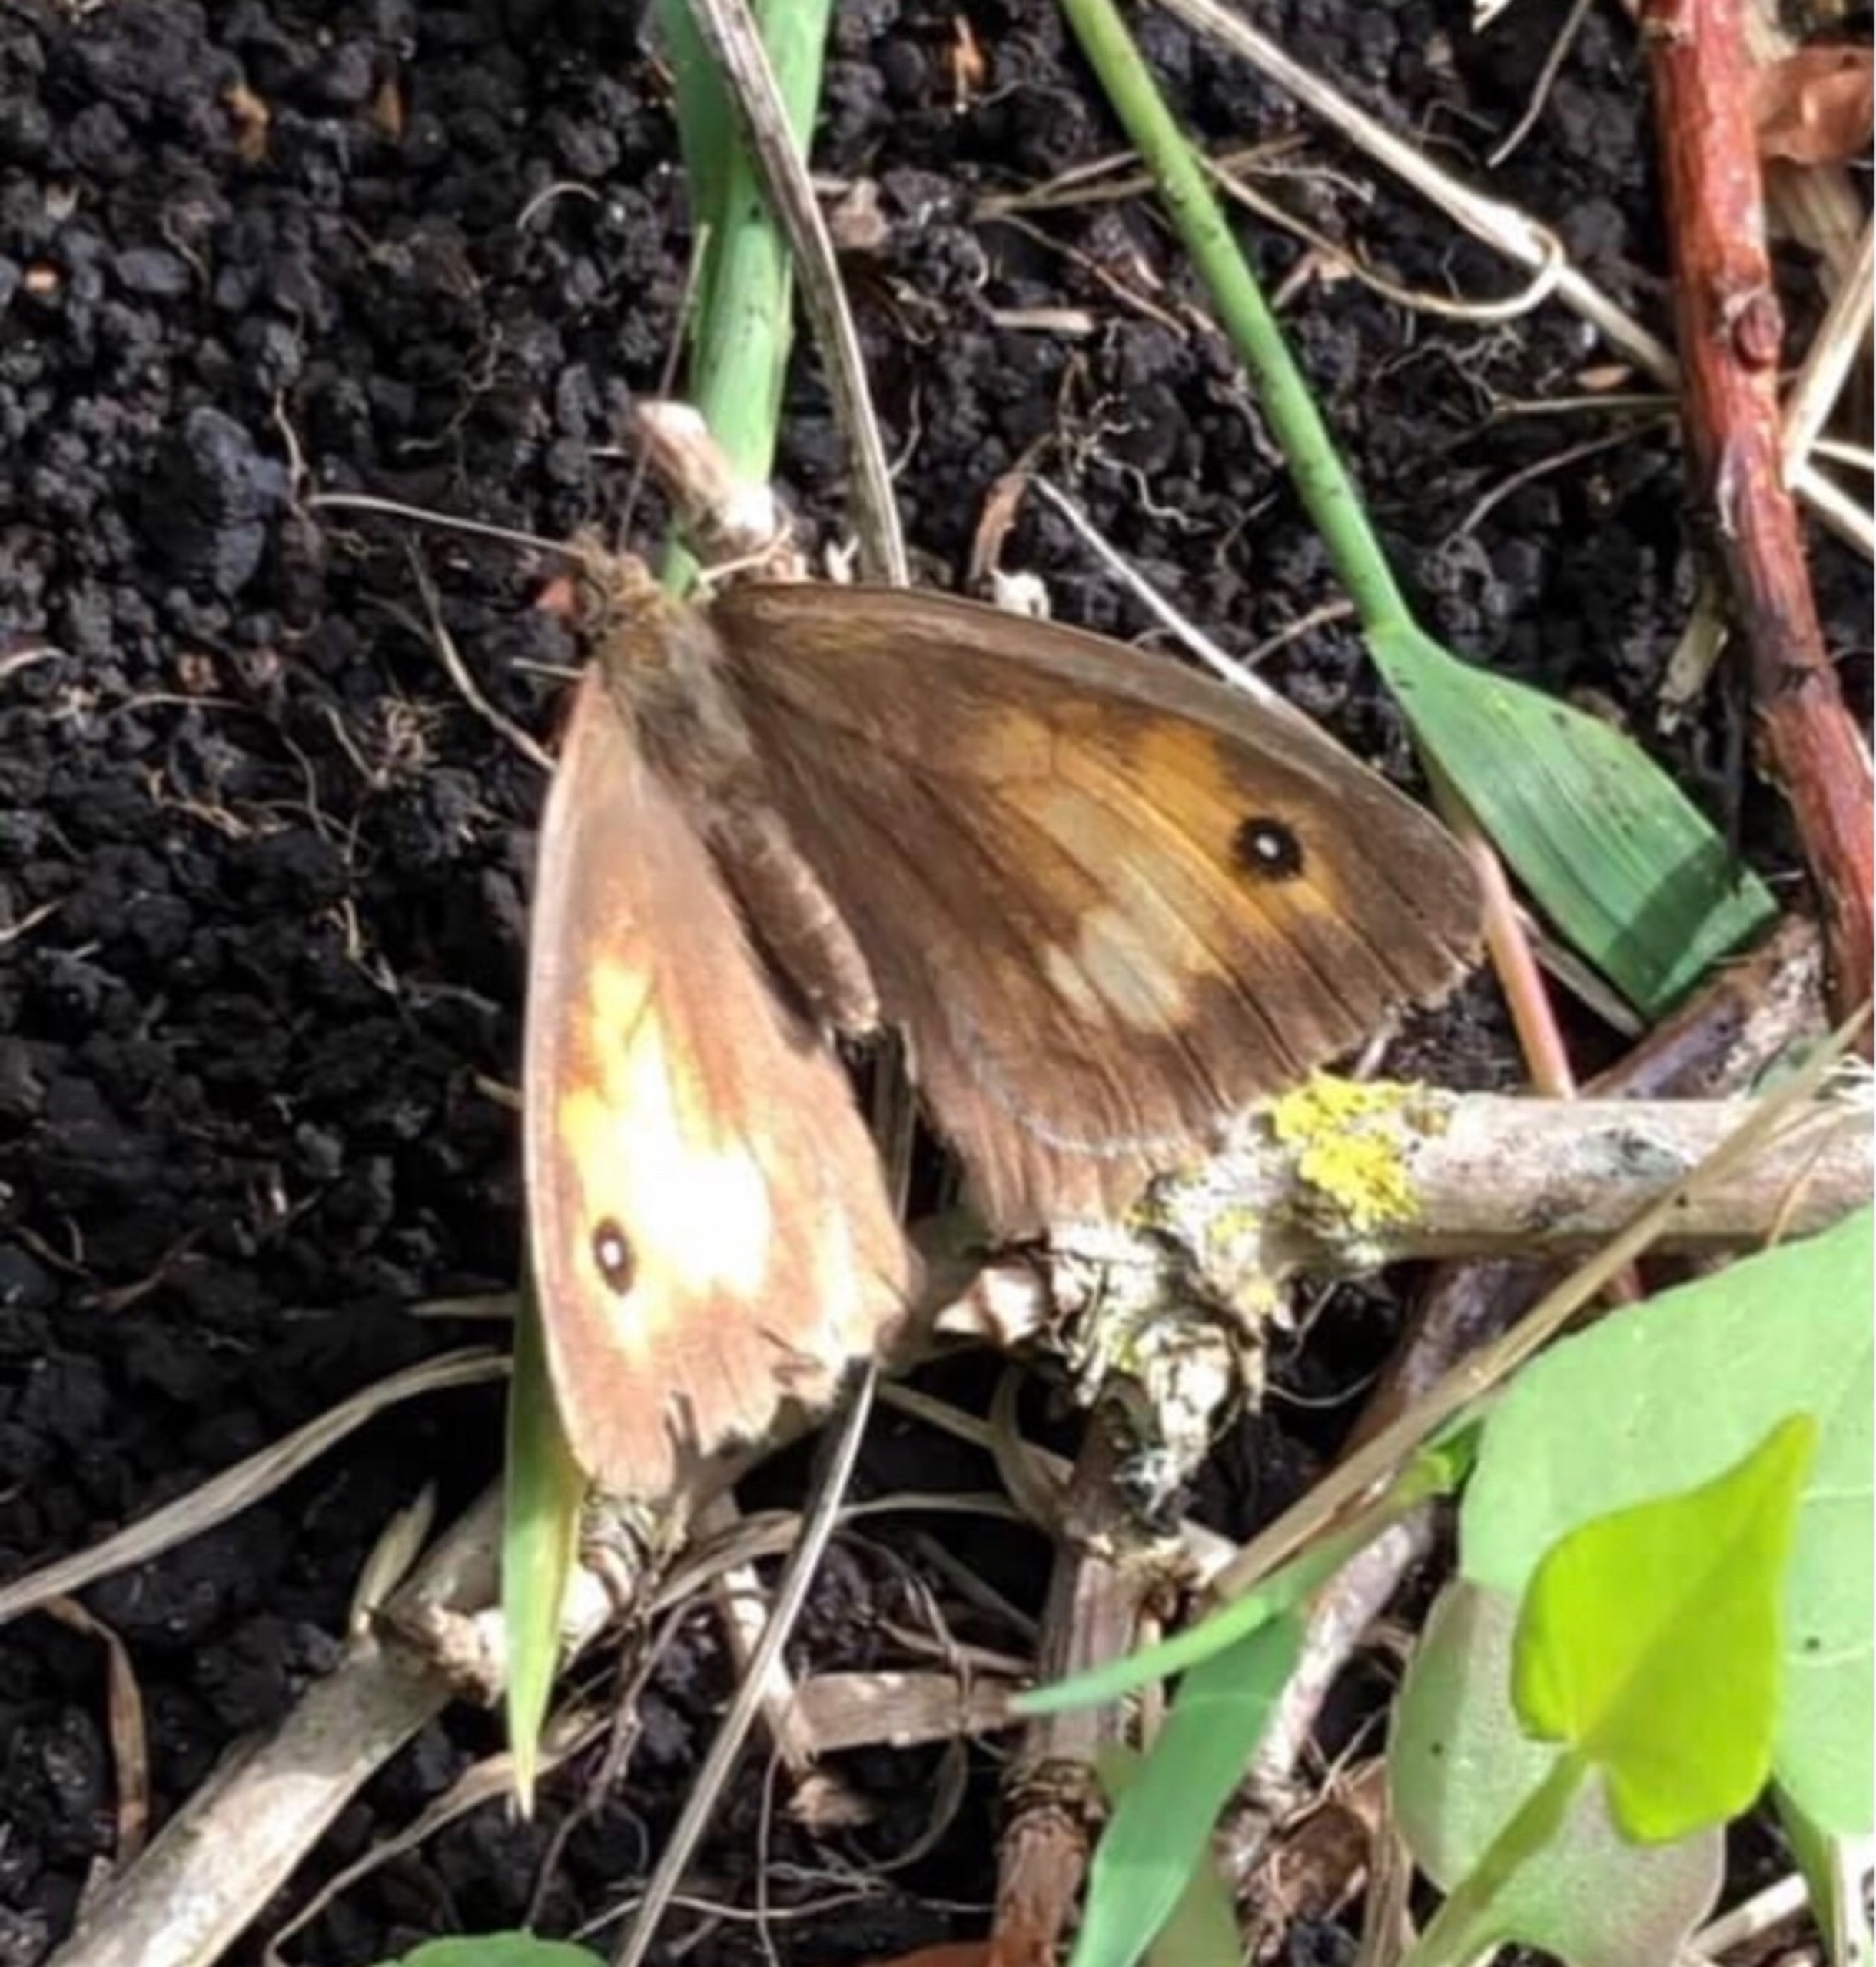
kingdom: Animalia
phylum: Arthropoda
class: Insecta
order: Lepidoptera
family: Nymphalidae
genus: Maniola
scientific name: Maniola jurtina
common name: Græsrandøje
